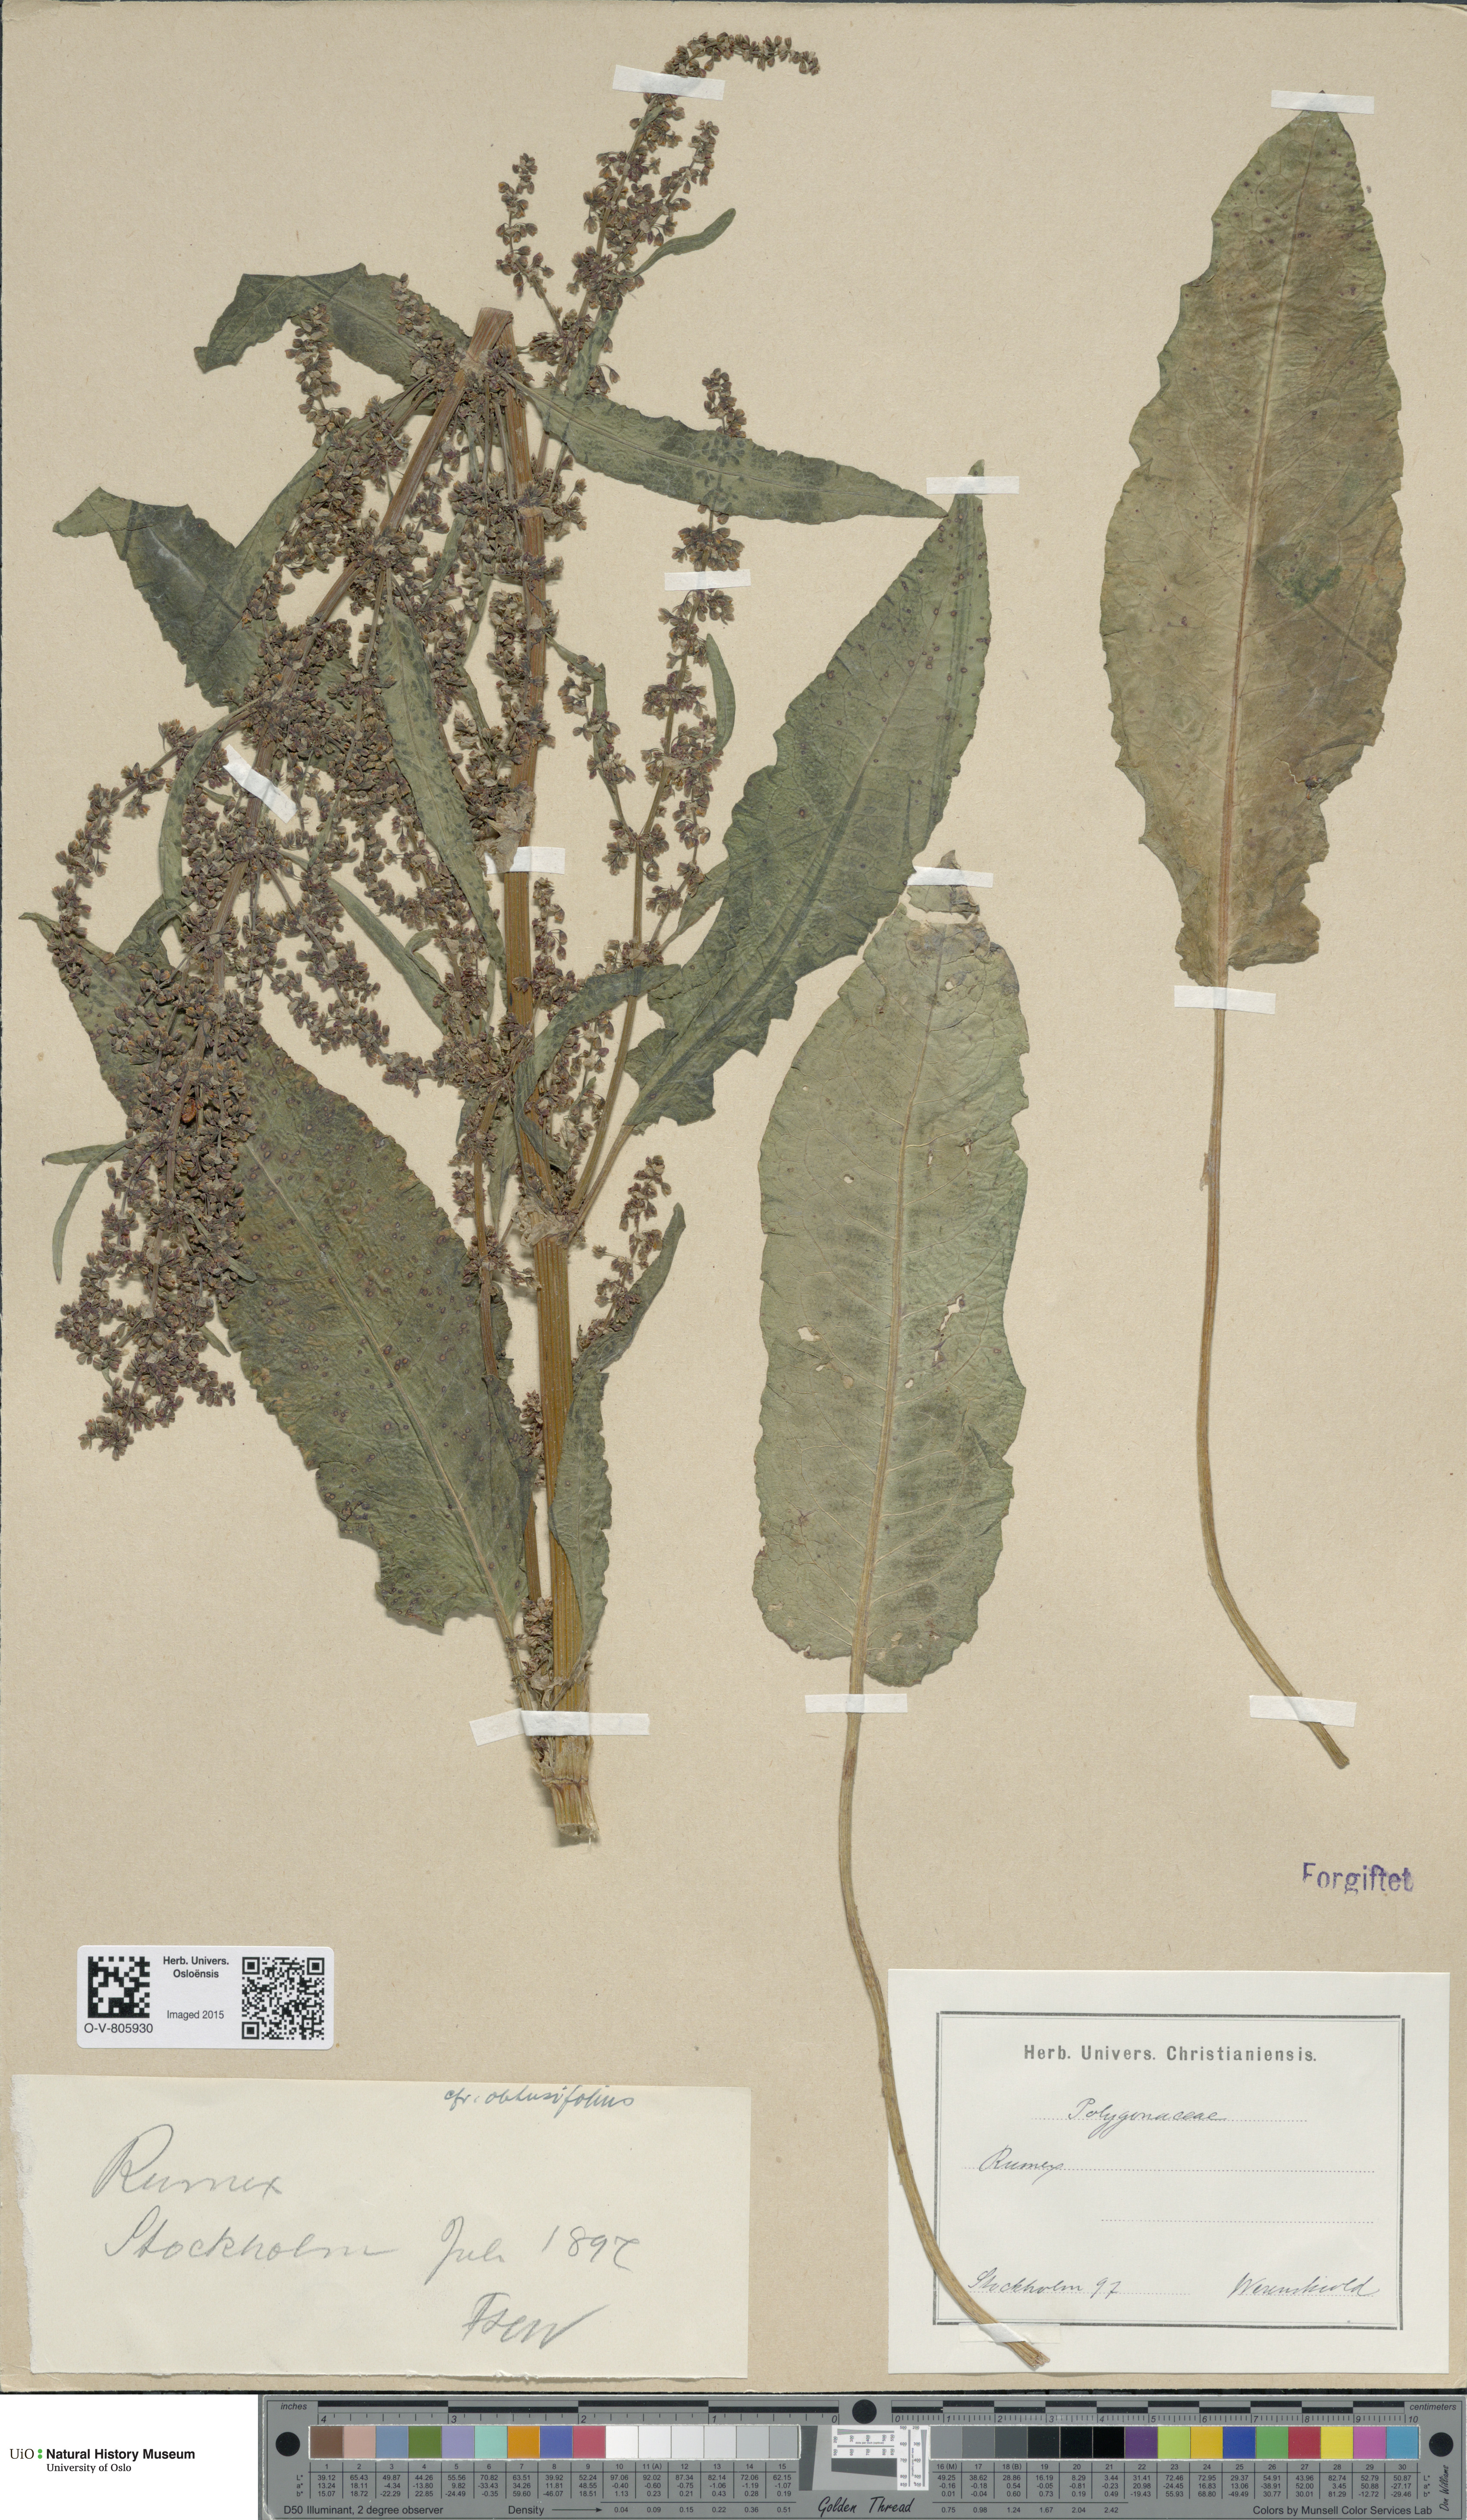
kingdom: Plantae
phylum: Tracheophyta
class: Magnoliopsida
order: Caryophyllales
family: Polygonaceae
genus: Rumex
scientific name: Rumex obtusifolius
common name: Bitter dock
